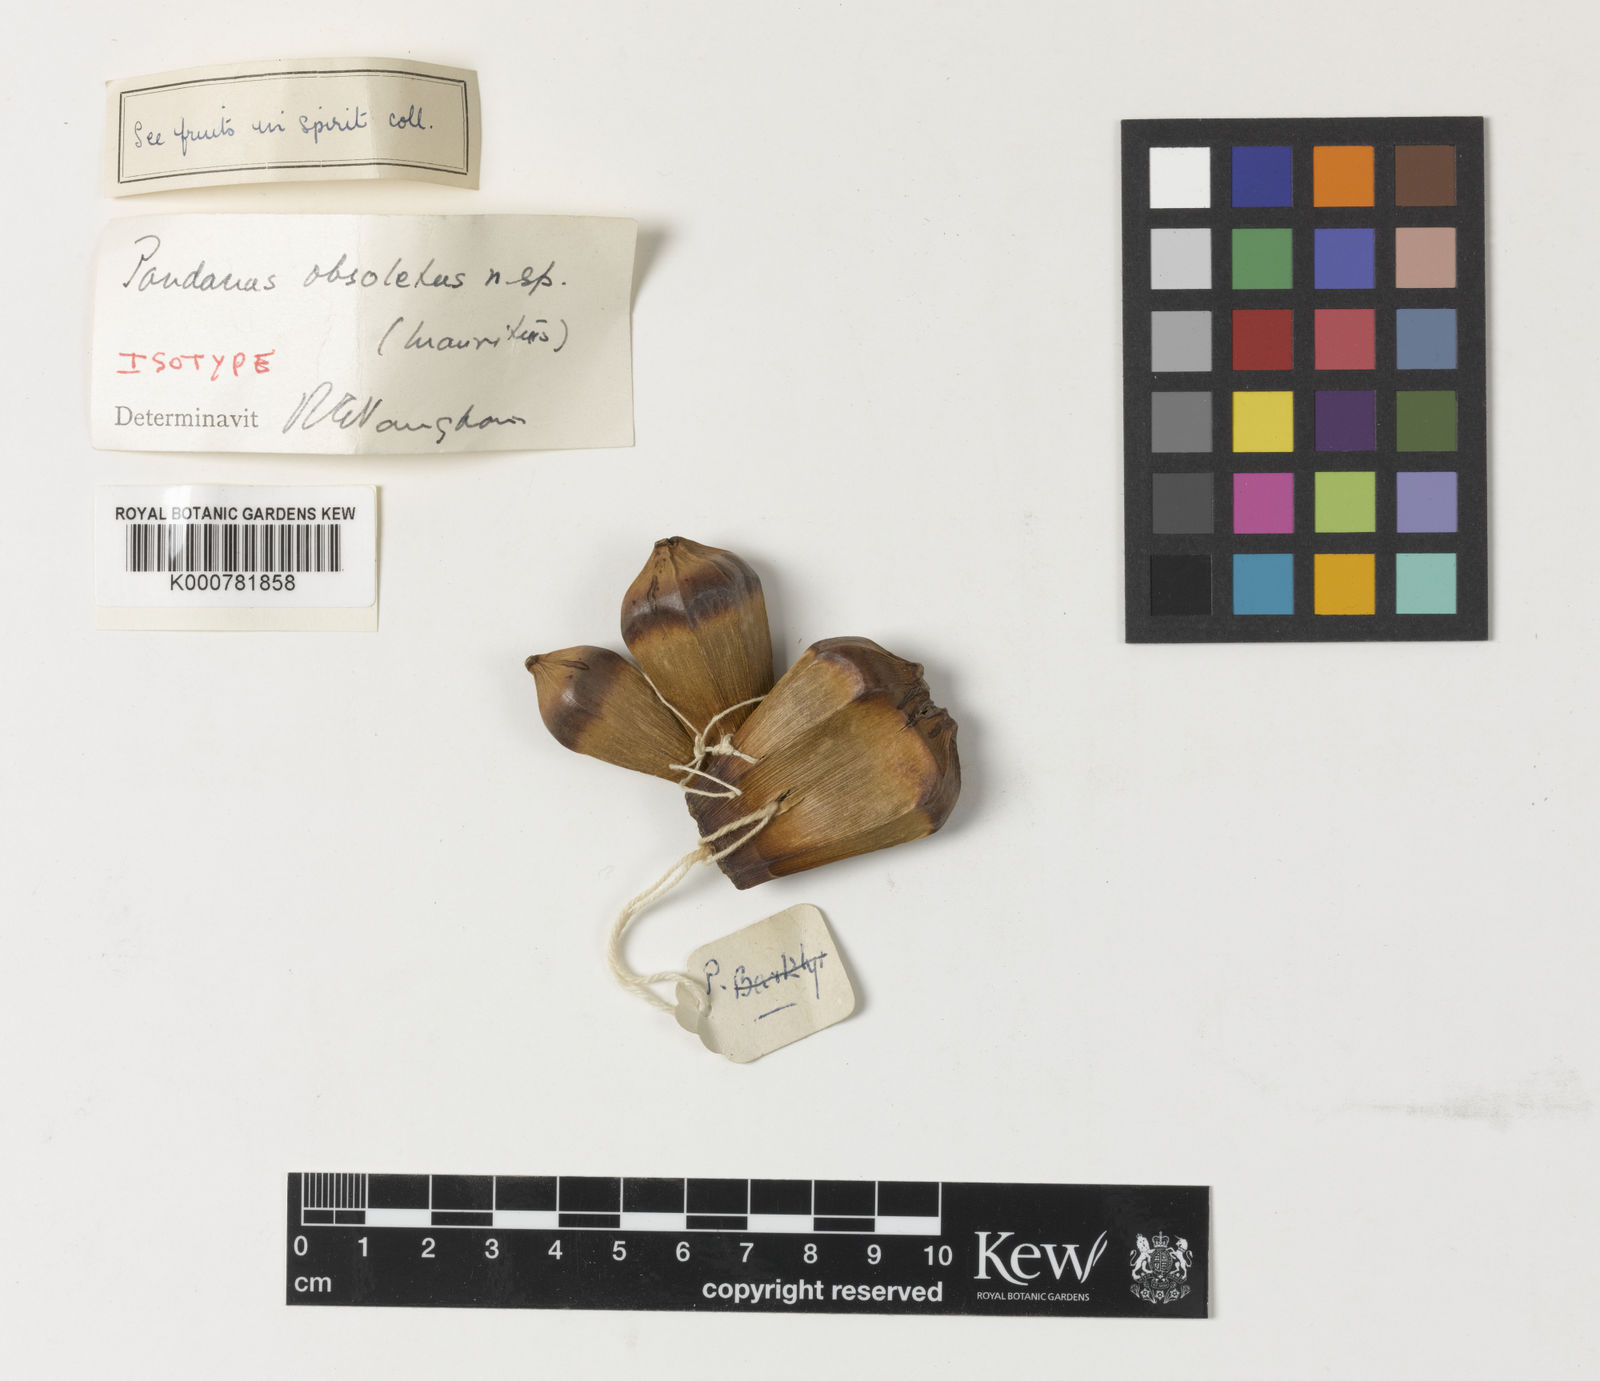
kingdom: Plantae
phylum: Tracheophyta
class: Liliopsida
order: Pandanales
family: Pandanaceae
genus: Pandanus
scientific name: Pandanus obsoletus
